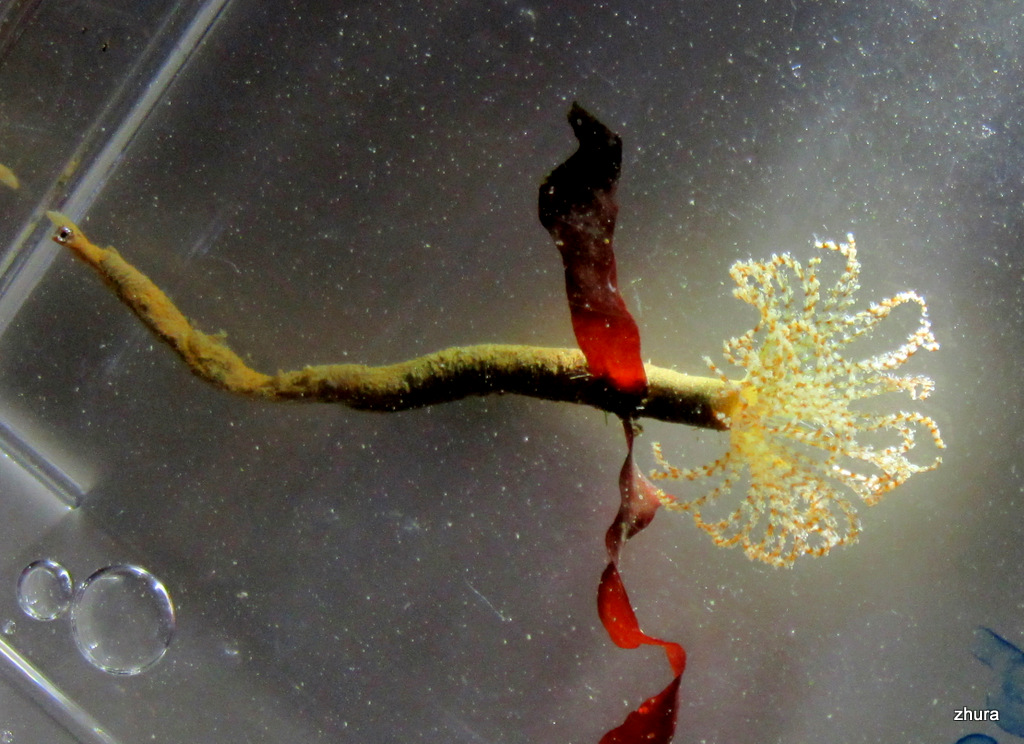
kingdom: Animalia
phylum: Annelida
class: Polychaeta
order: Sabellida
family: Sabellidae
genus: Branchiomma
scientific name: Branchiomma arcticum
